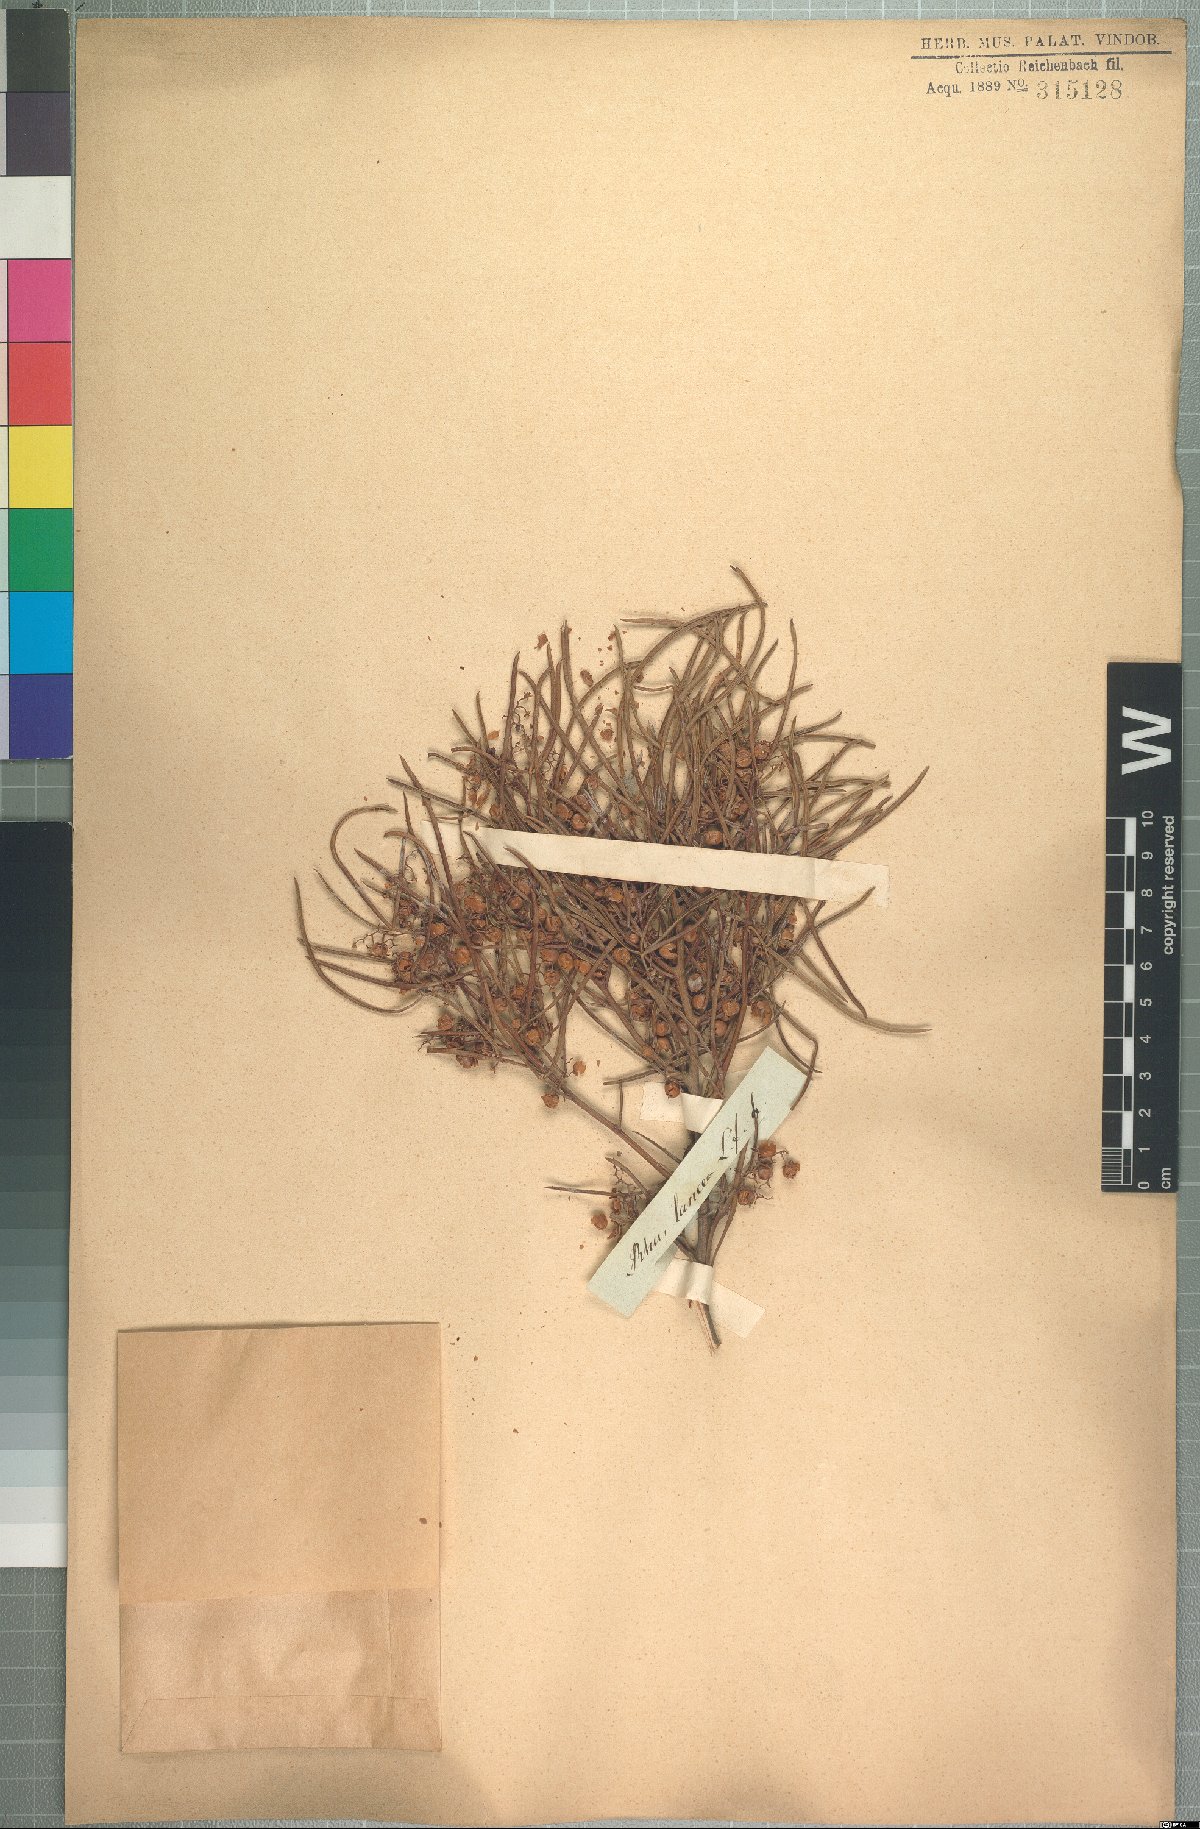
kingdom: Plantae
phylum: Tracheophyta
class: Magnoliopsida
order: Sapindales
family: Anacardiaceae
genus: Searsia
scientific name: Searsia dregeana
